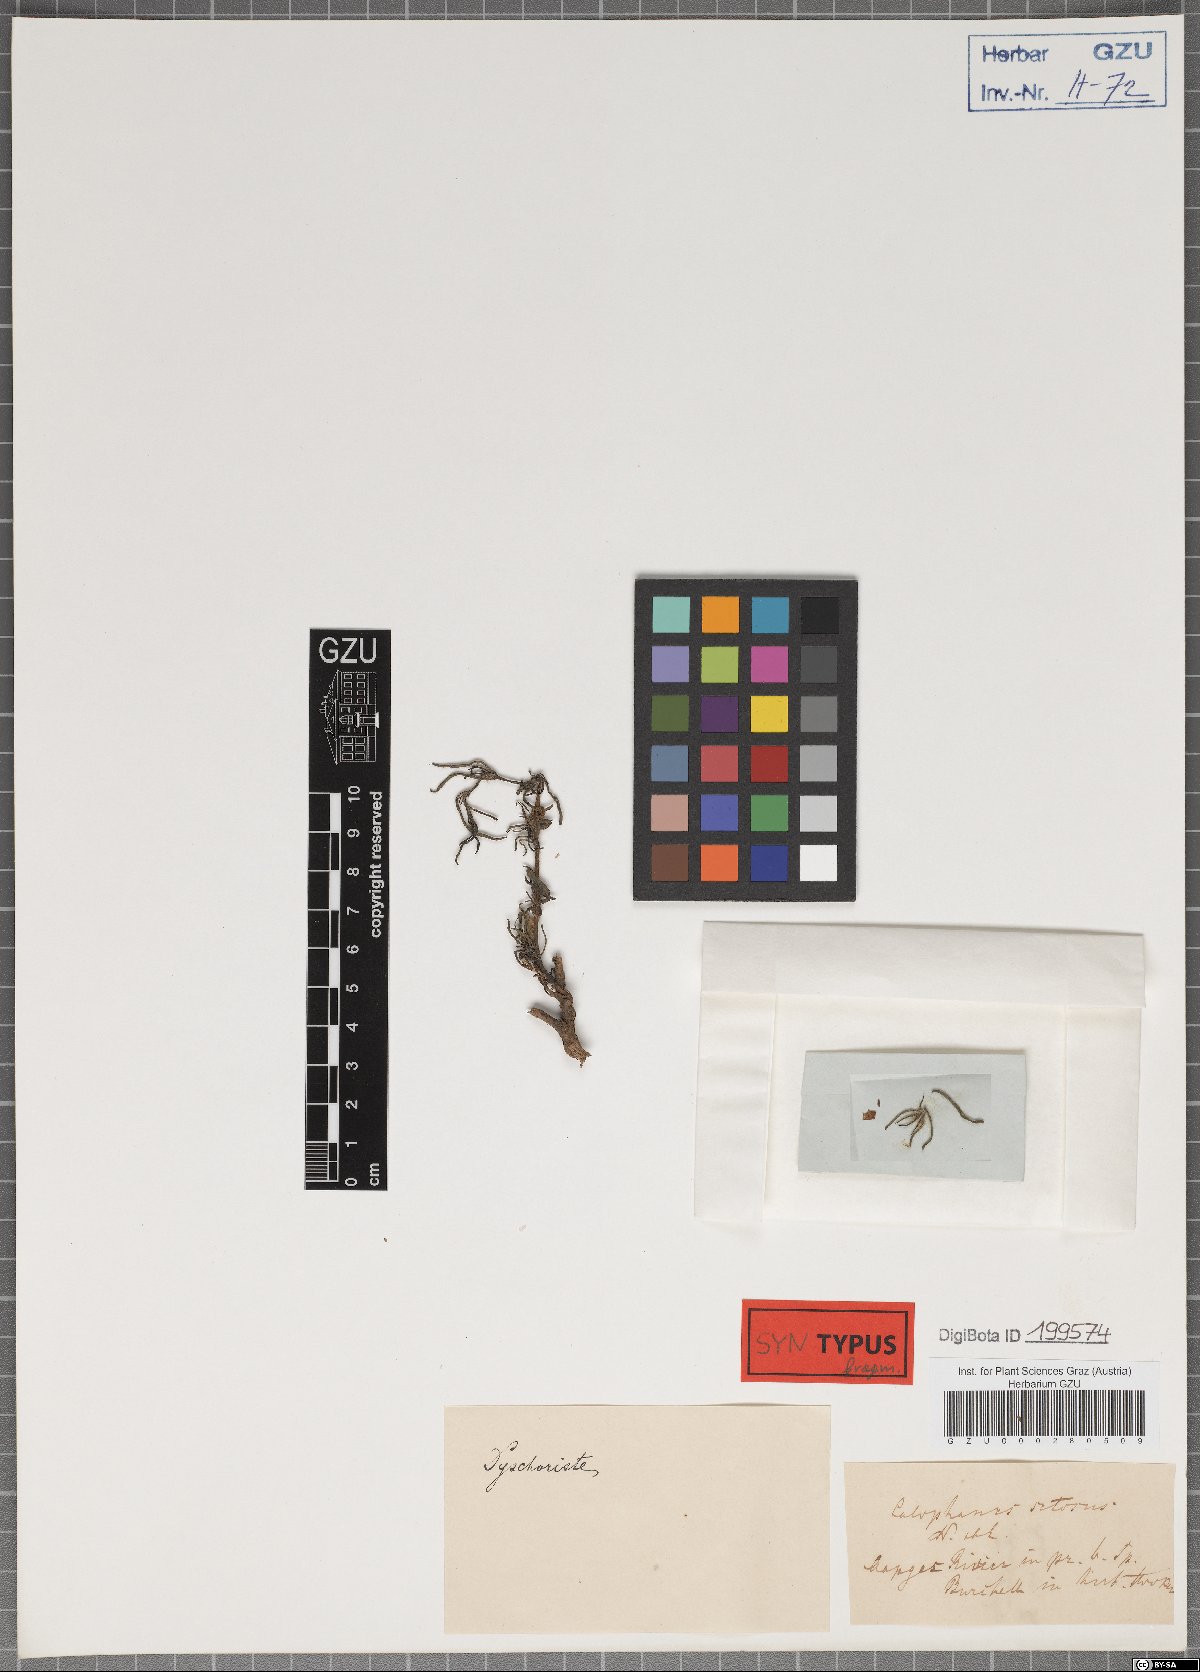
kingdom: Plantae
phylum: Tracheophyta
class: Magnoliopsida
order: Lamiales
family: Acanthaceae
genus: Ruelliopsis
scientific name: Ruelliopsis setosa
